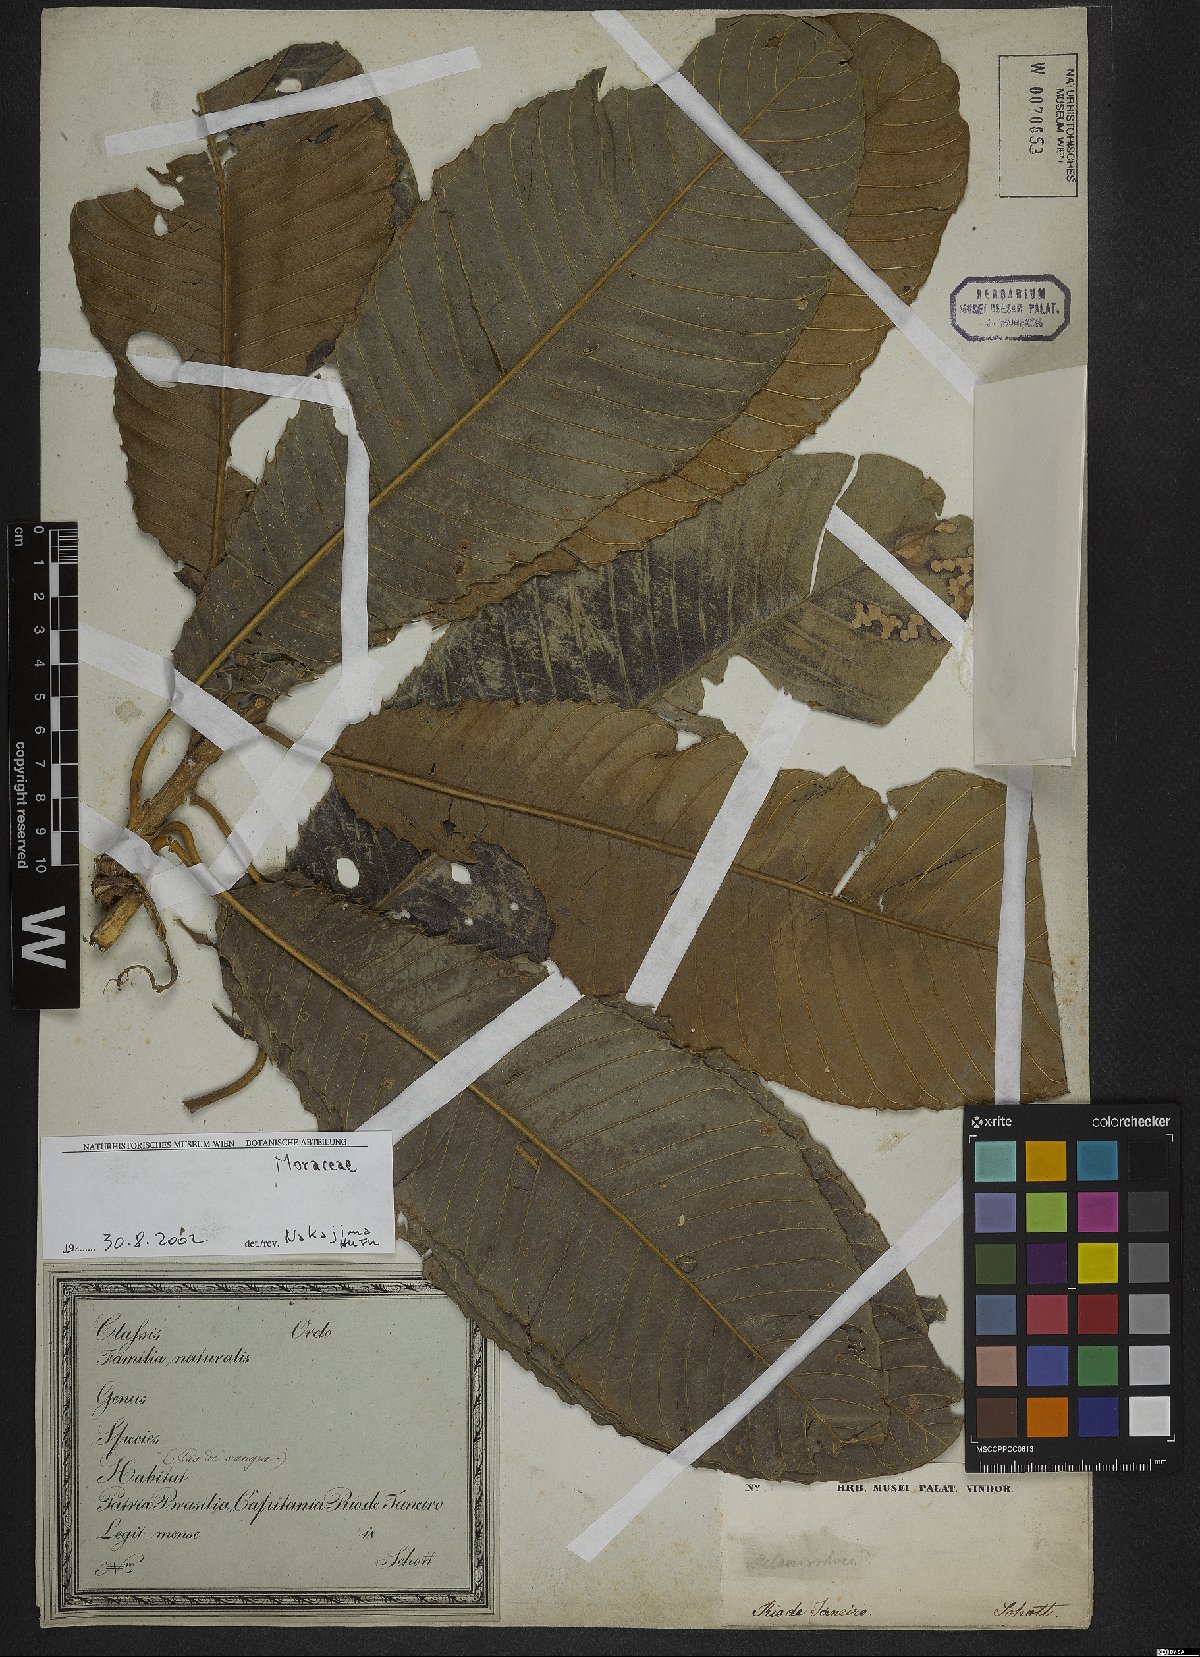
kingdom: Plantae
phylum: Tracheophyta
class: Magnoliopsida
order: Rosales
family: Moraceae
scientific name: Moraceae
